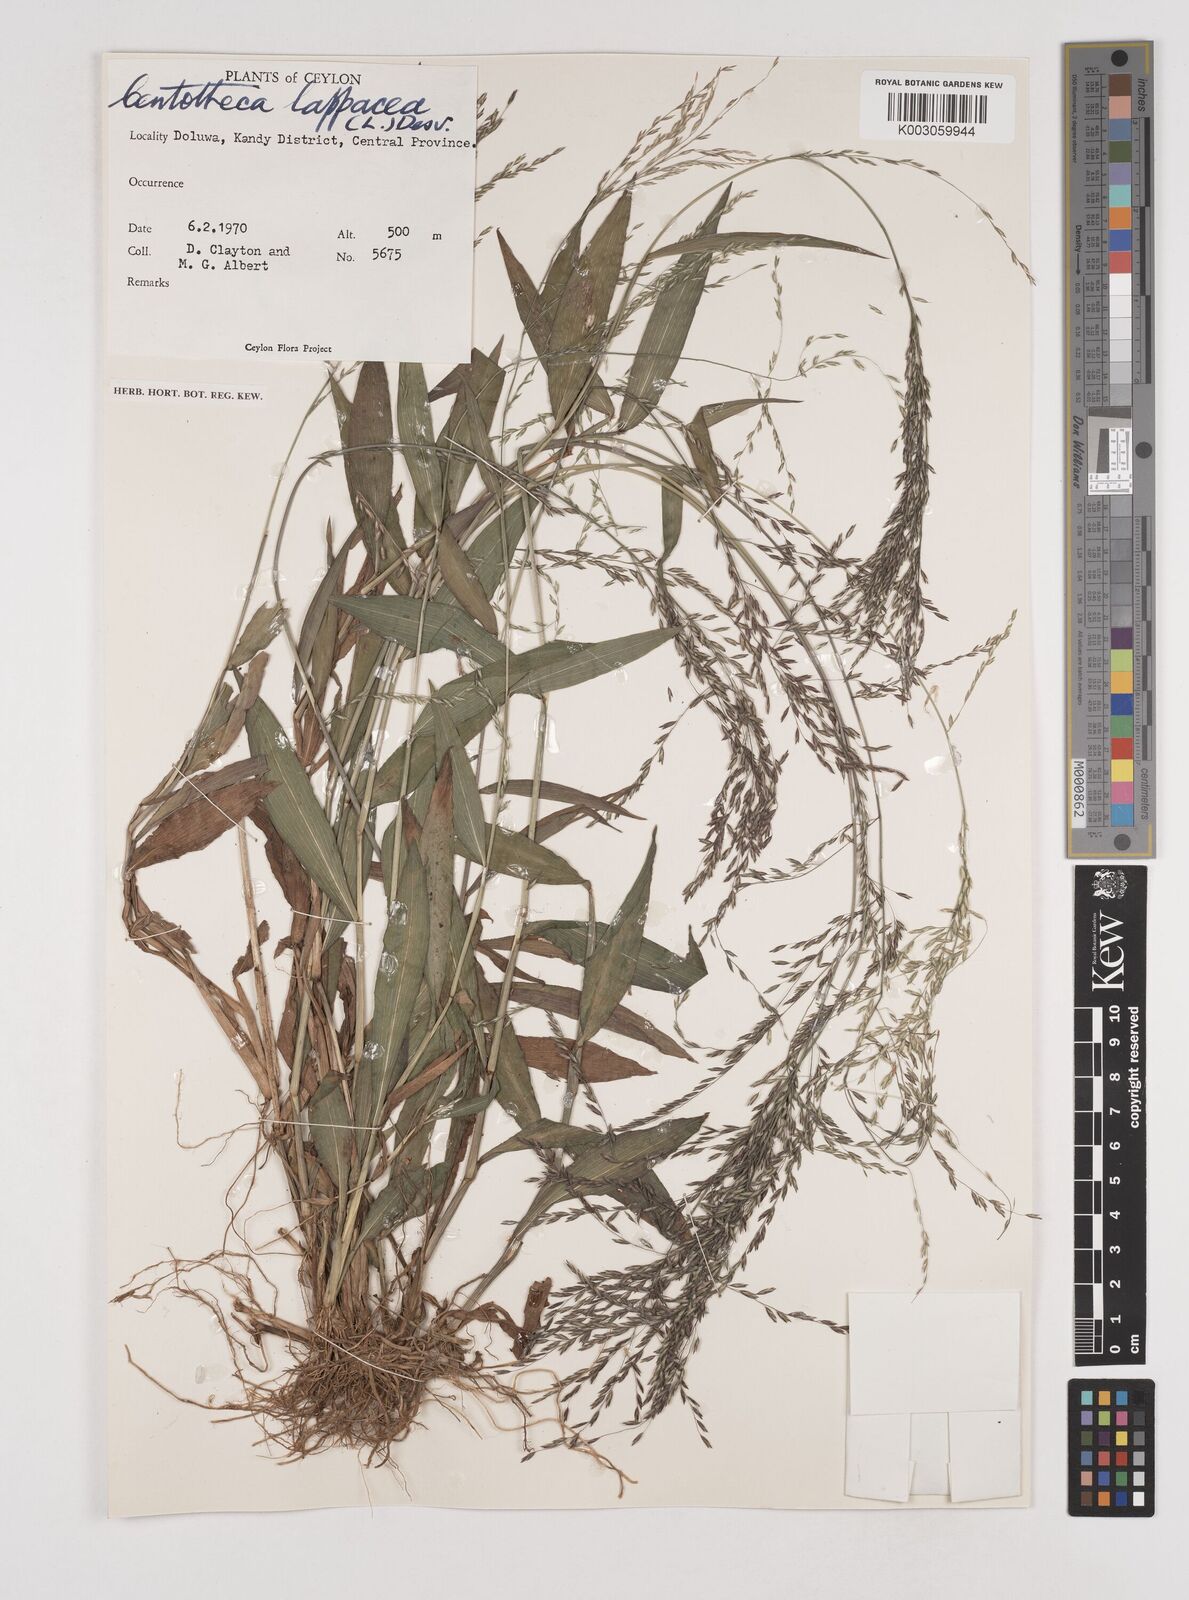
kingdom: Plantae
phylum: Tracheophyta
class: Liliopsida
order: Poales
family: Poaceae
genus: Centotheca
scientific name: Centotheca lappacea
